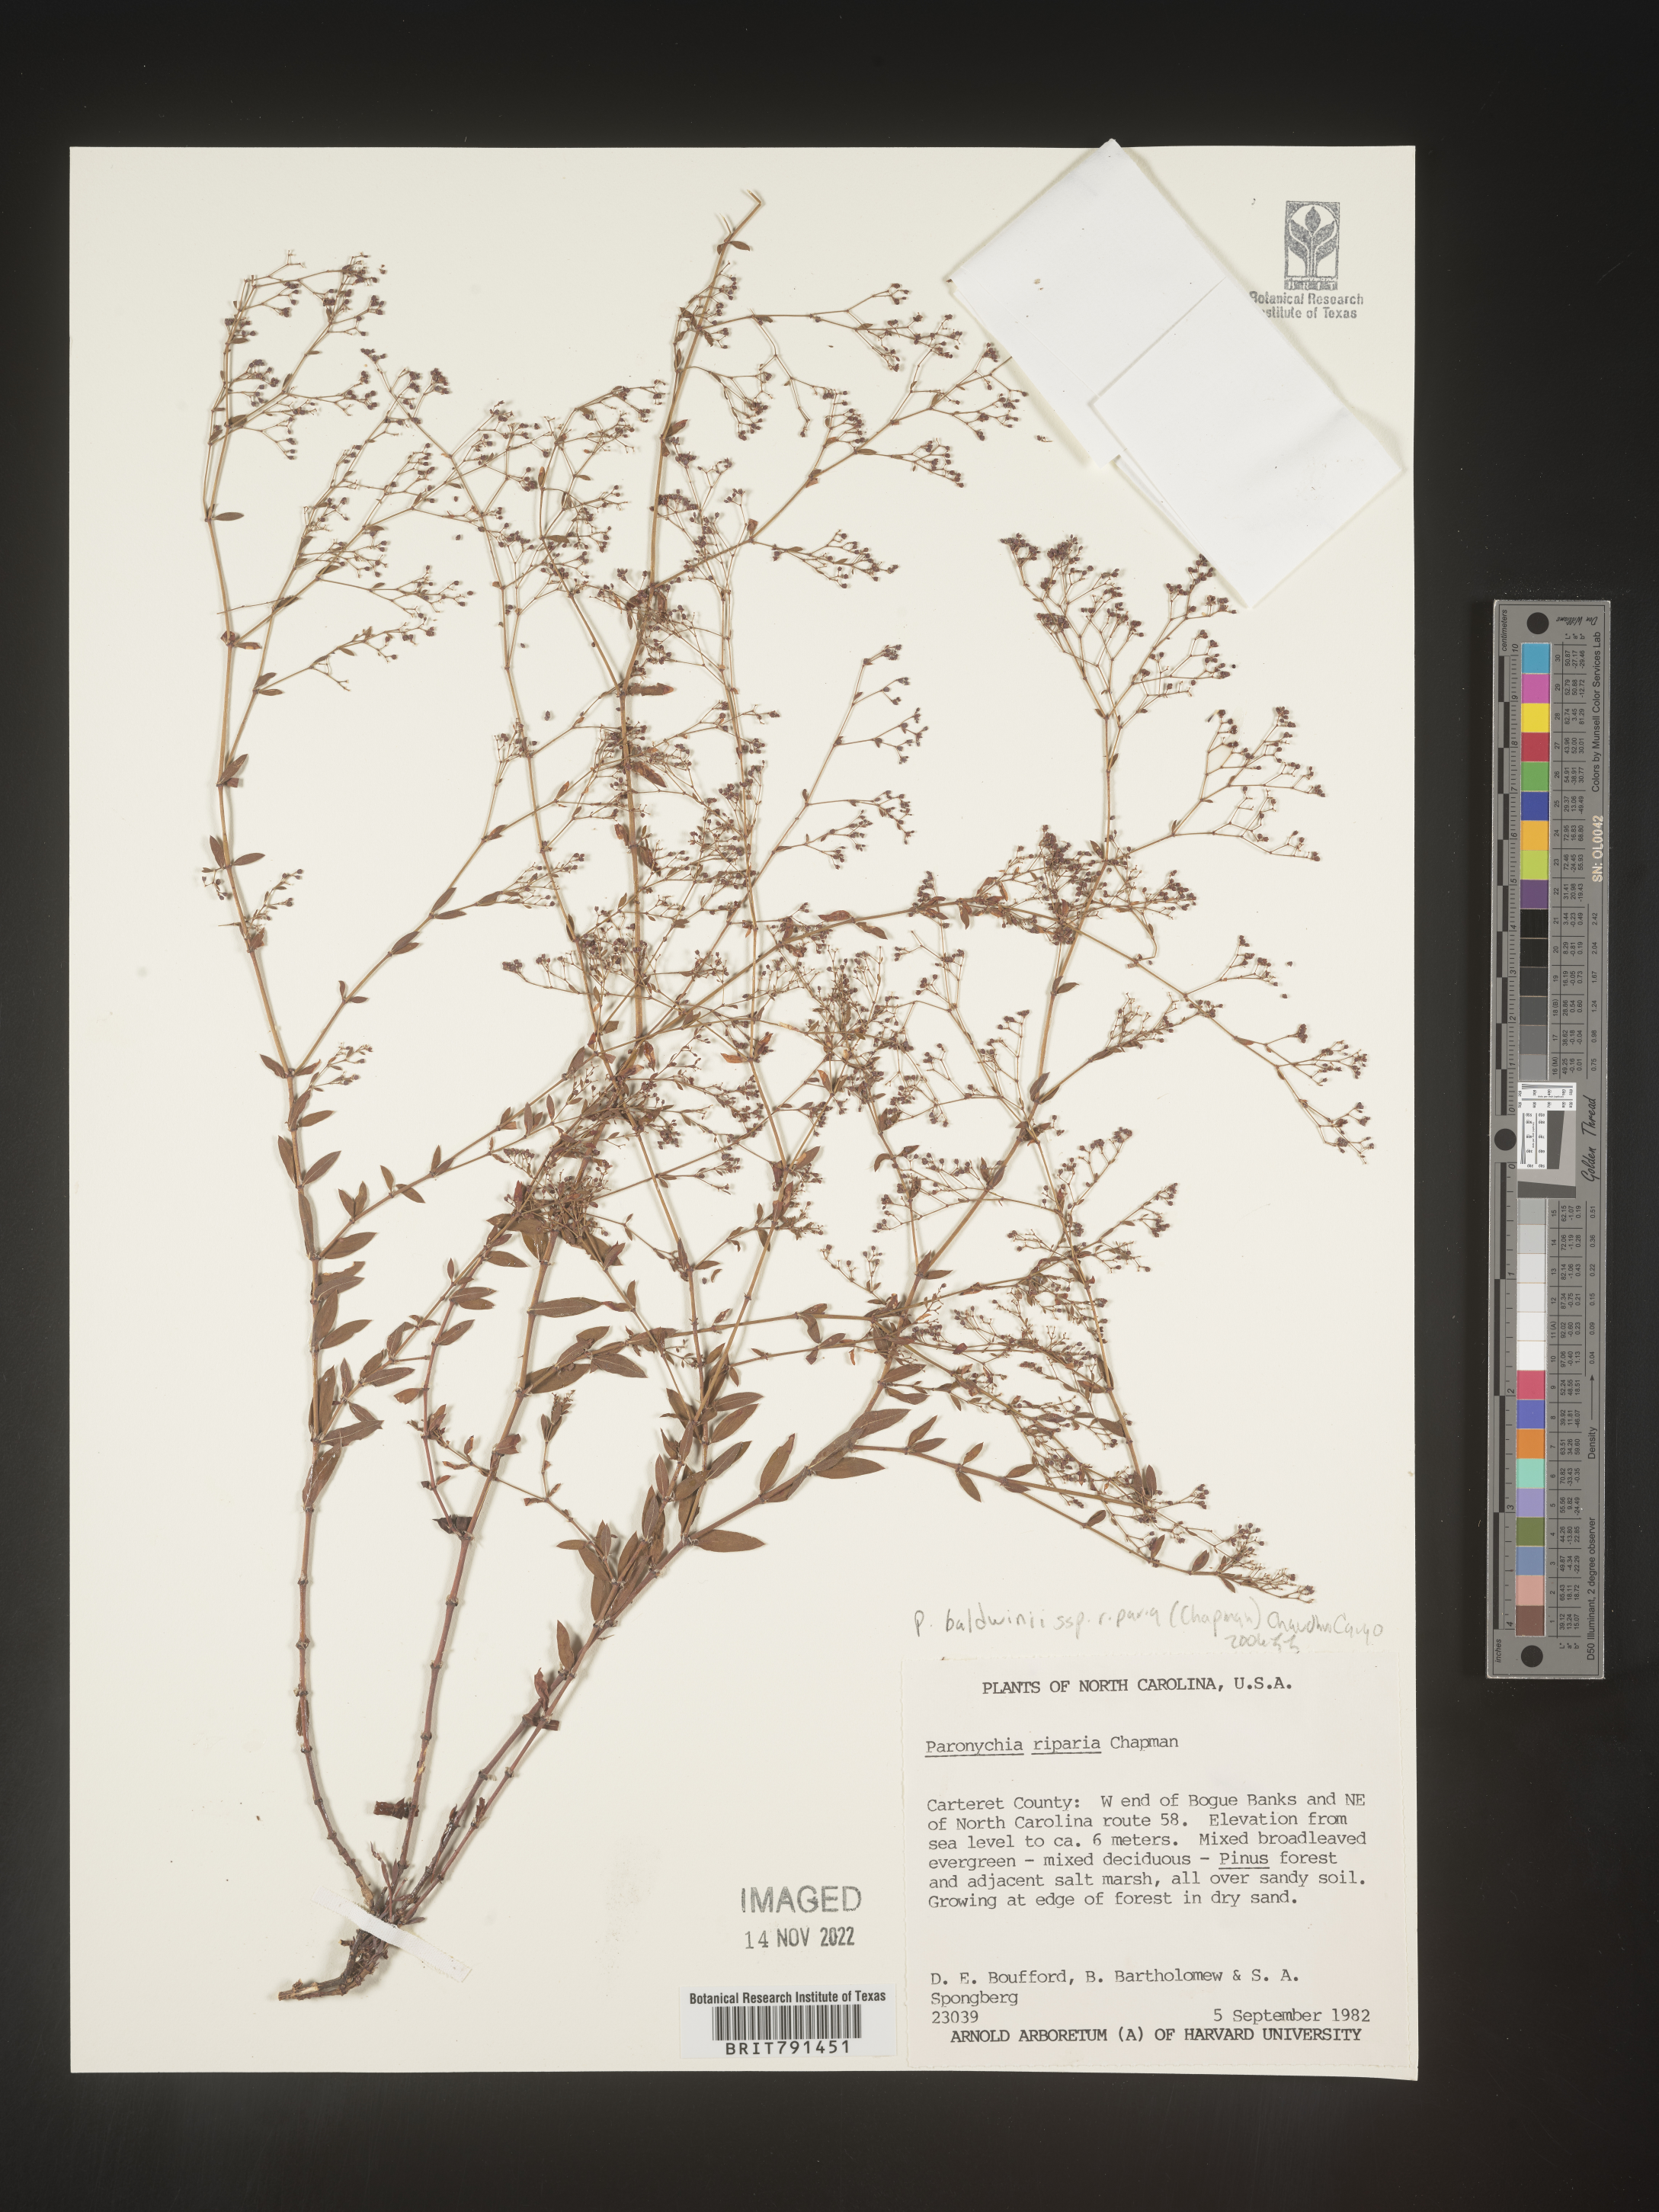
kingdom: Plantae
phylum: Tracheophyta
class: Magnoliopsida
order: Caryophyllales
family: Caryophyllaceae
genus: Paronychia
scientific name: Paronychia baldwinii
